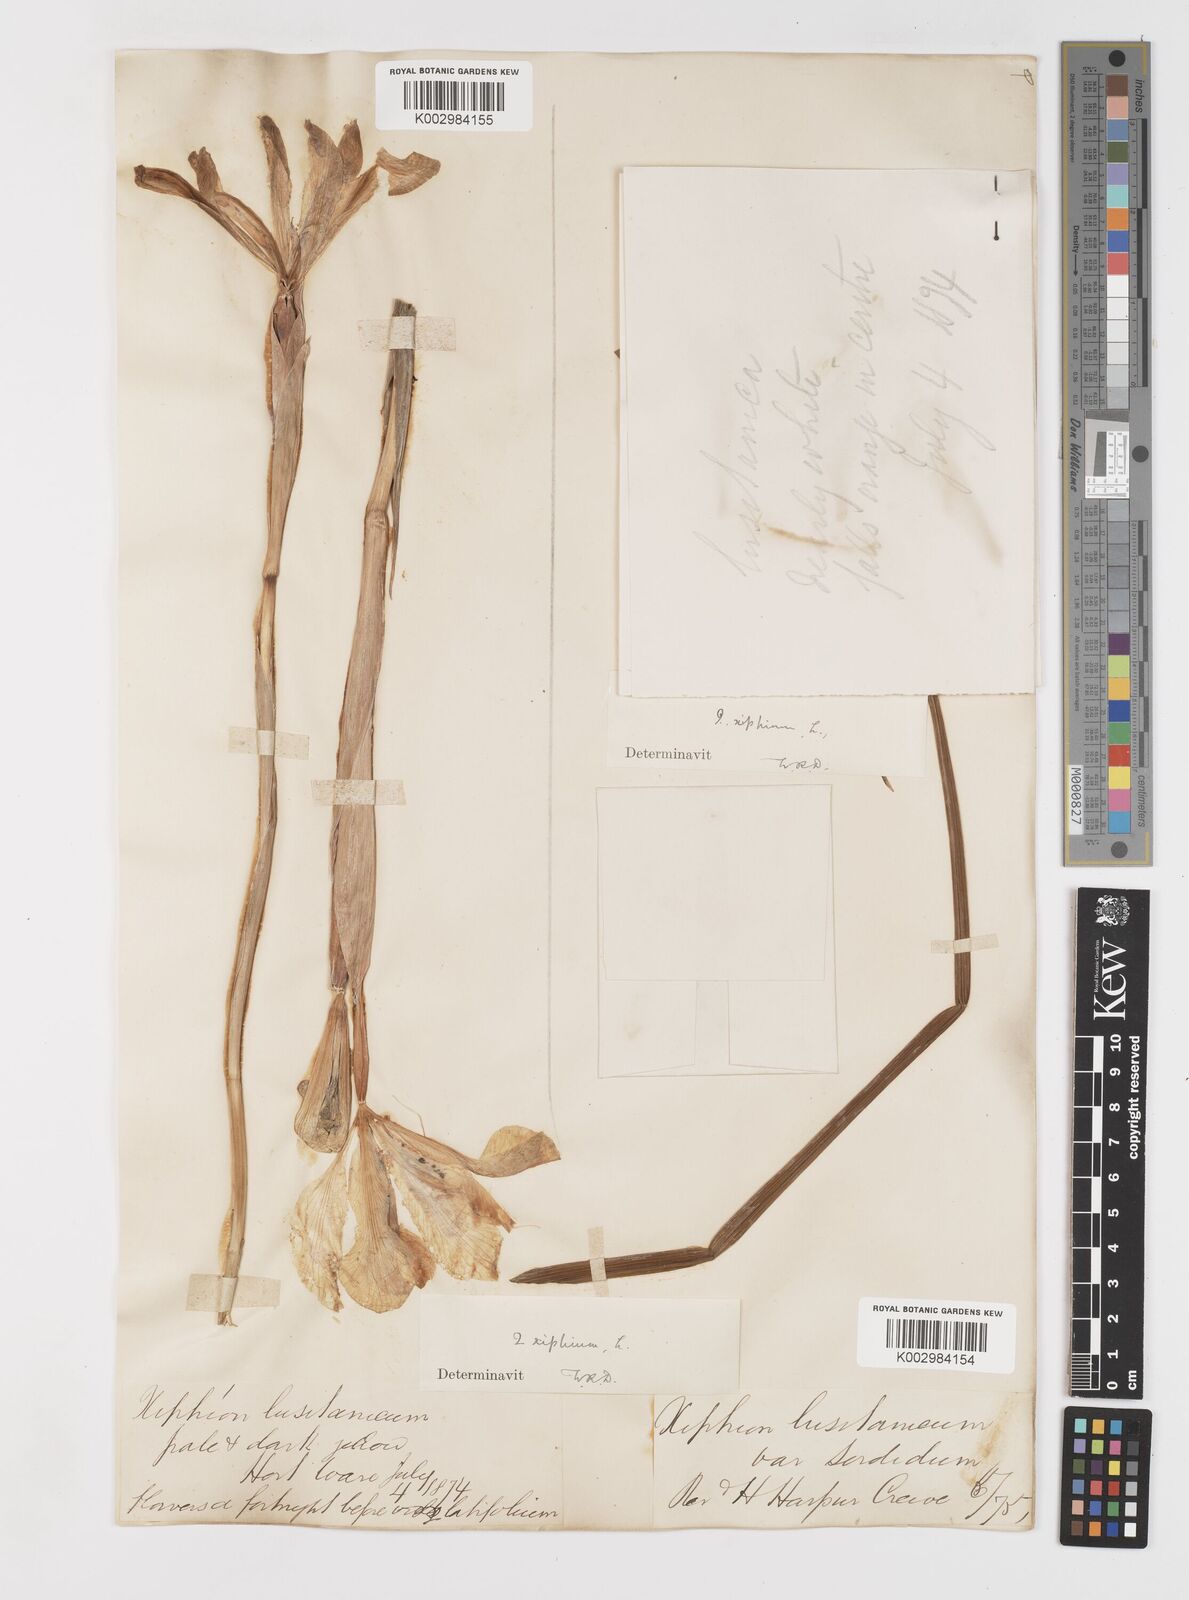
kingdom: Plantae
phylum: Tracheophyta
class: Liliopsida
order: Asparagales
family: Iridaceae
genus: Iris
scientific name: Iris xiphium
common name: Spanish iris
